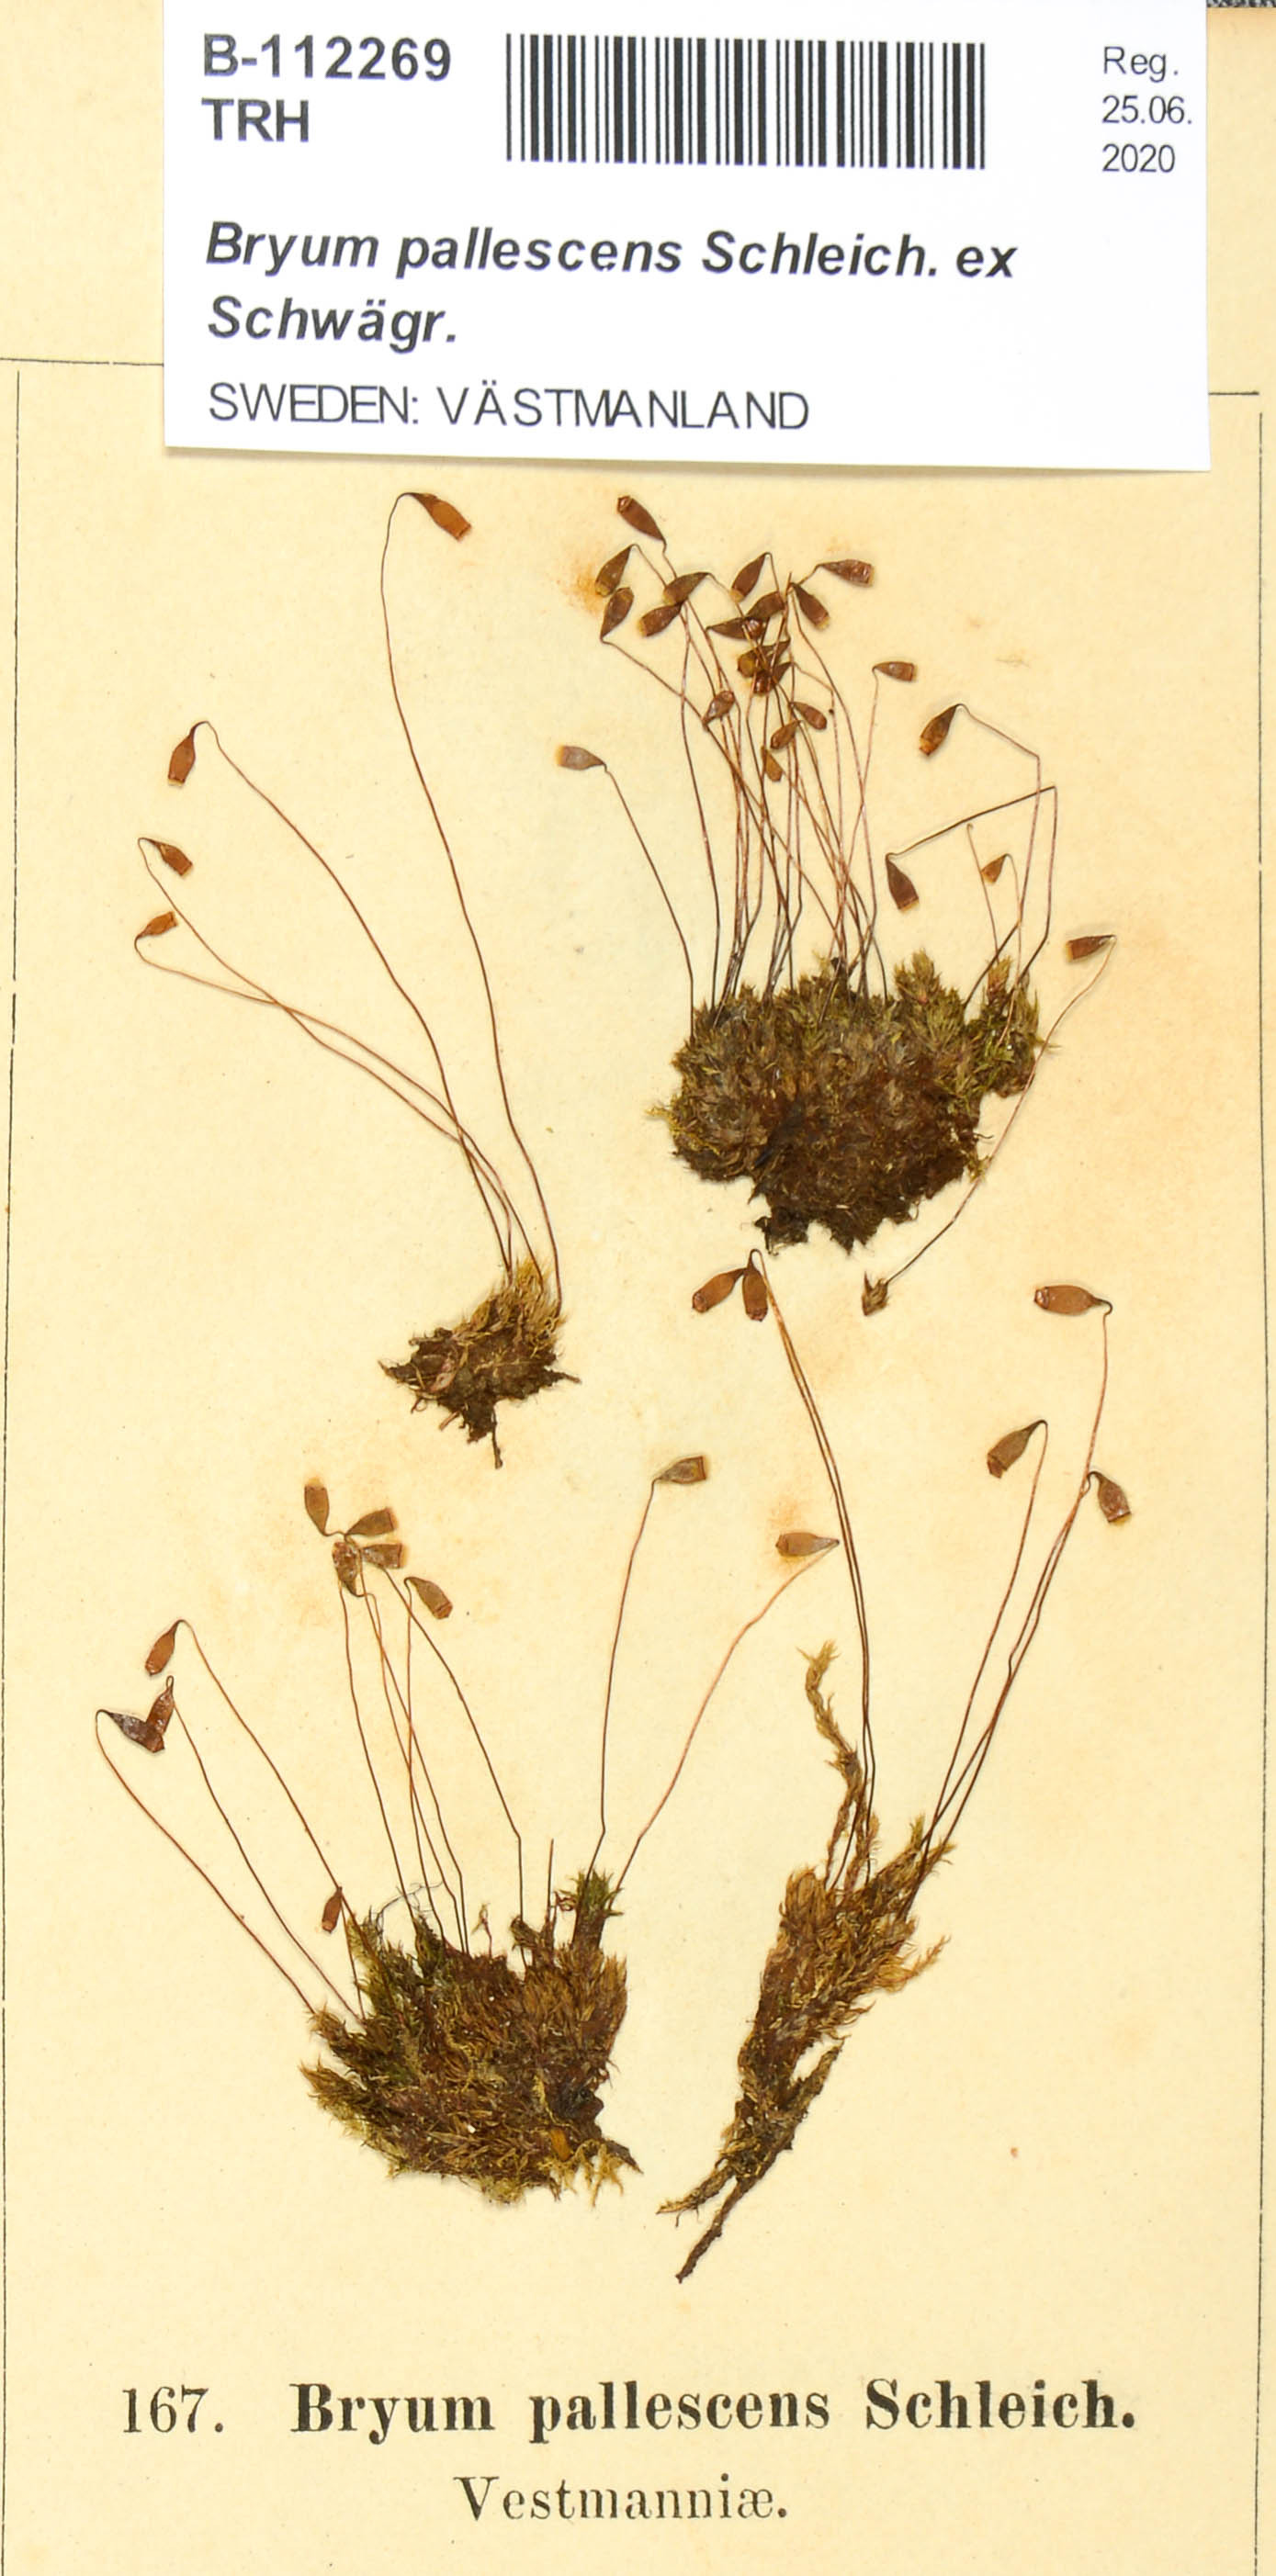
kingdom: Plantae
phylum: Bryophyta
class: Bryopsida
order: Bryales
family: Bryaceae
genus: Ptychostomum
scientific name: Ptychostomum pallescens
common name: Tall-clustered thread-moss
